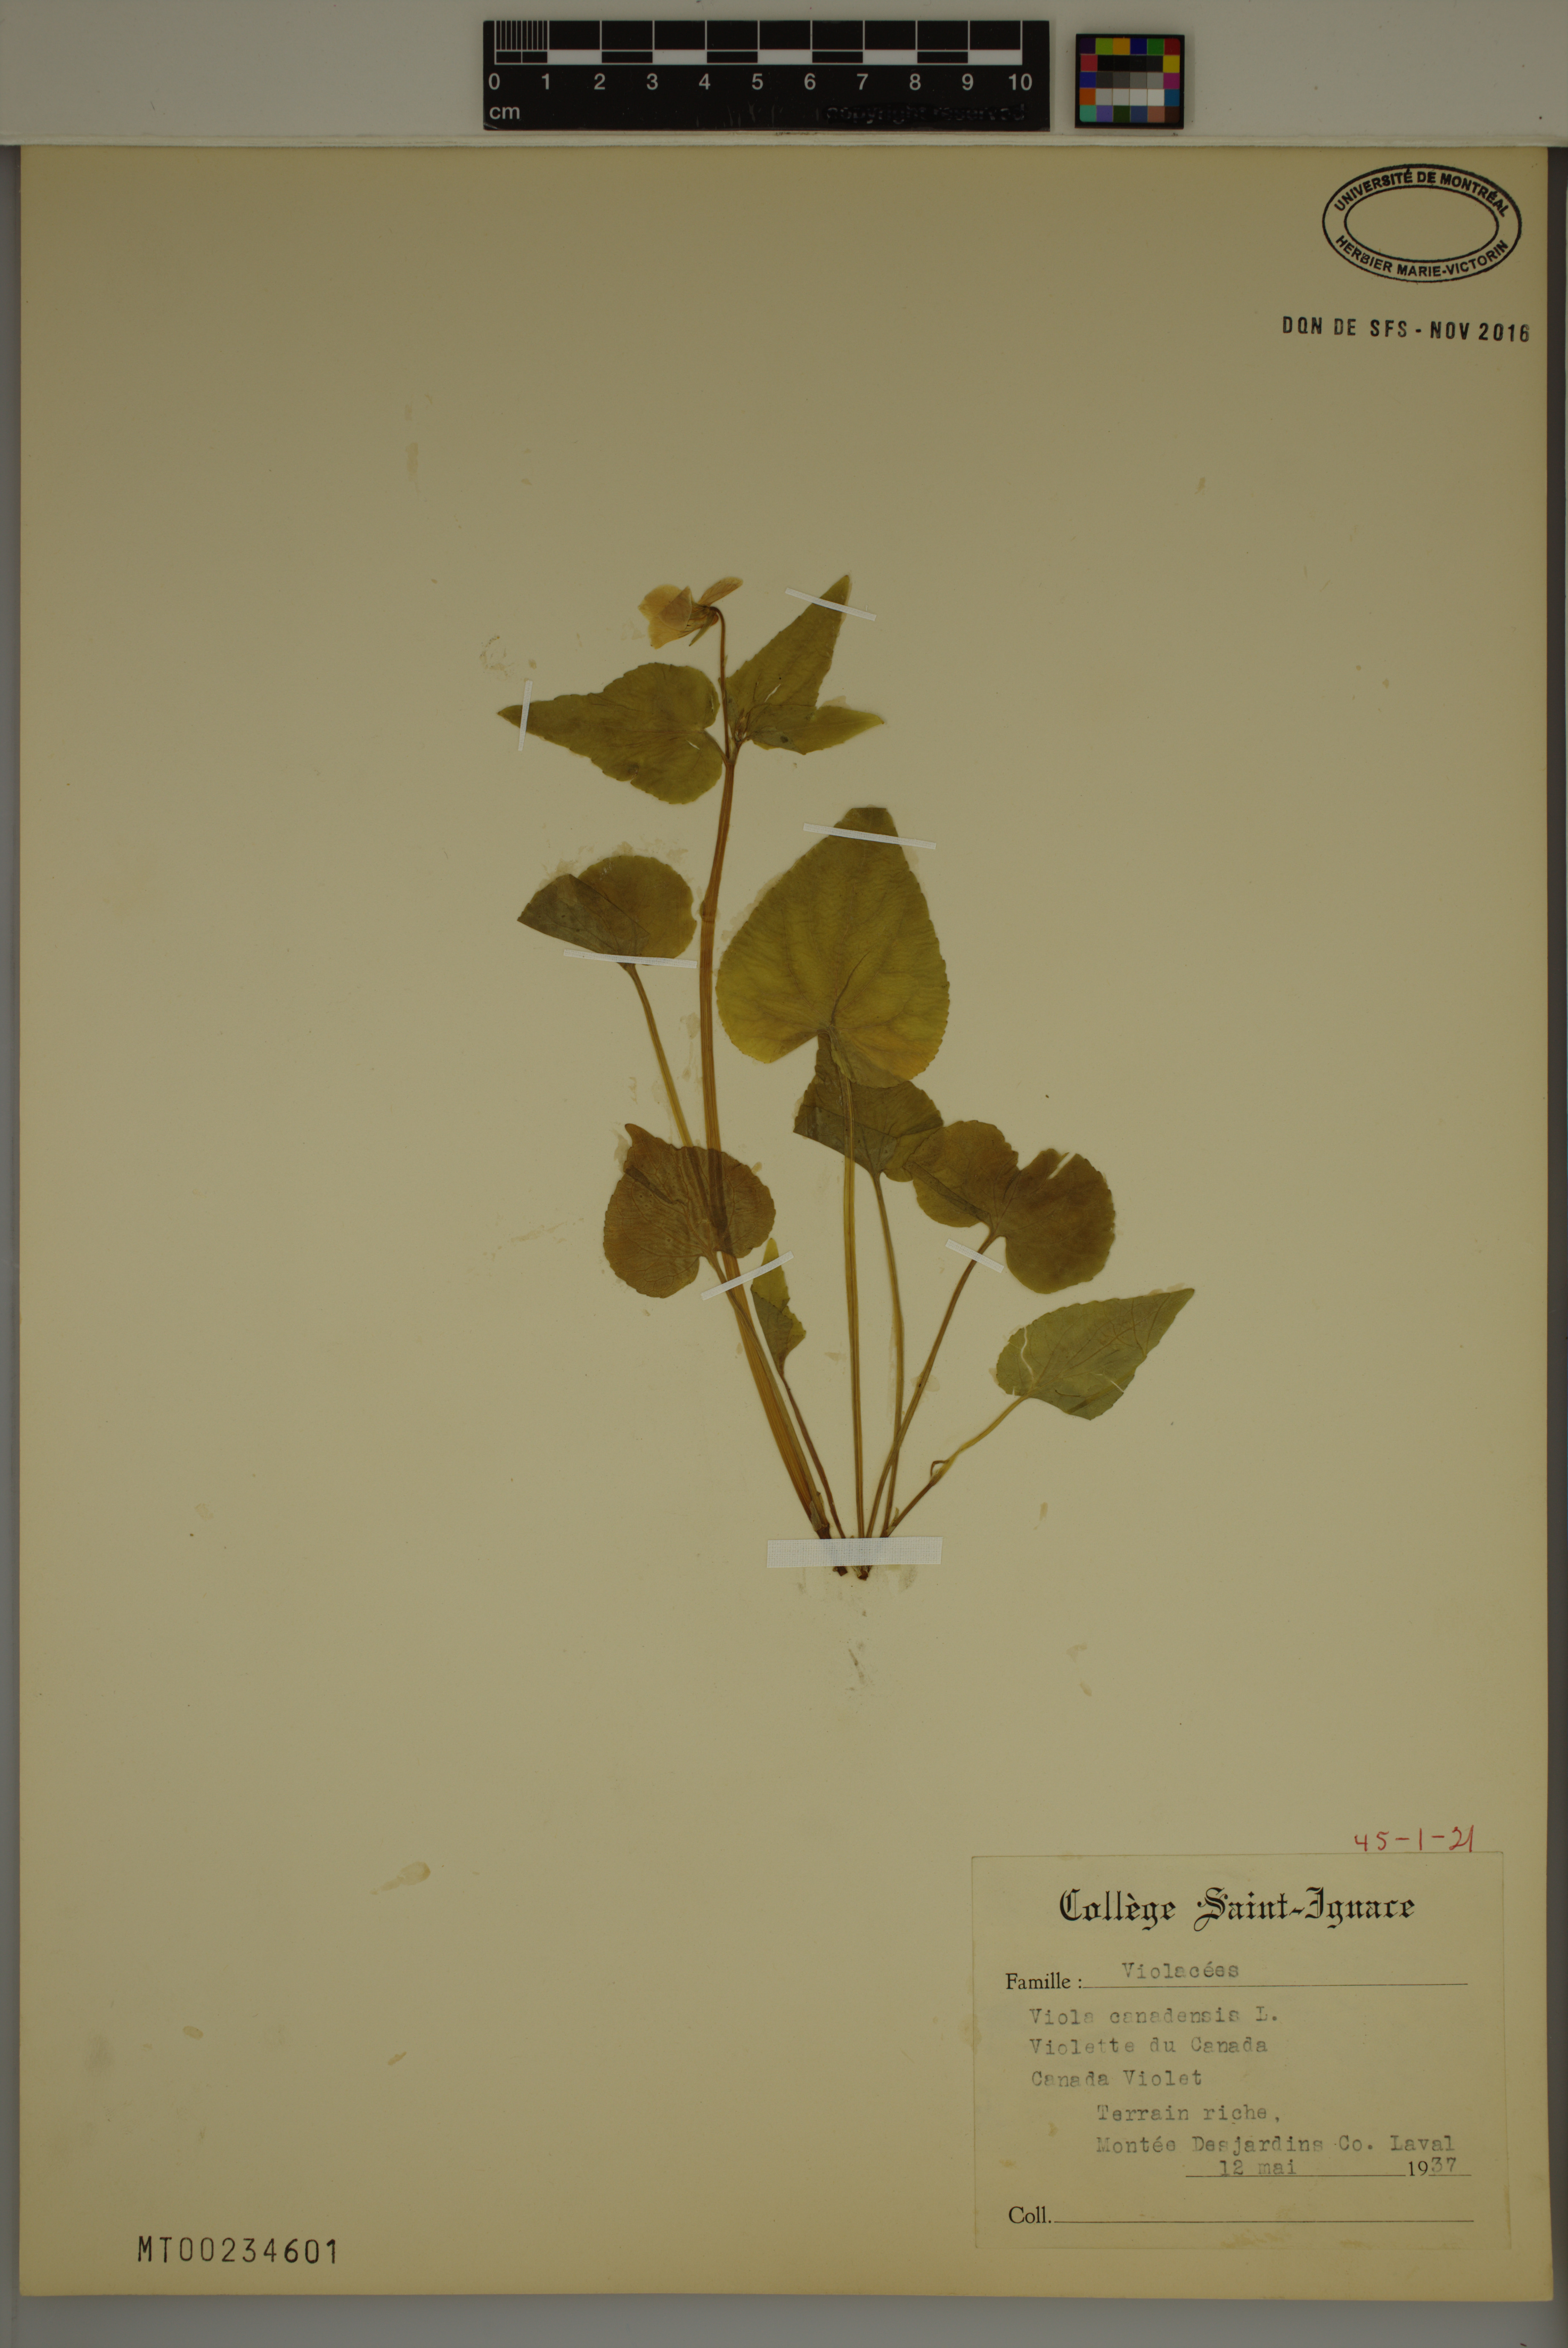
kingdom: Plantae
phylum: Tracheophyta
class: Magnoliopsida
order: Malpighiales
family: Violaceae
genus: Viola
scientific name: Viola canadensis
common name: Canada violet
